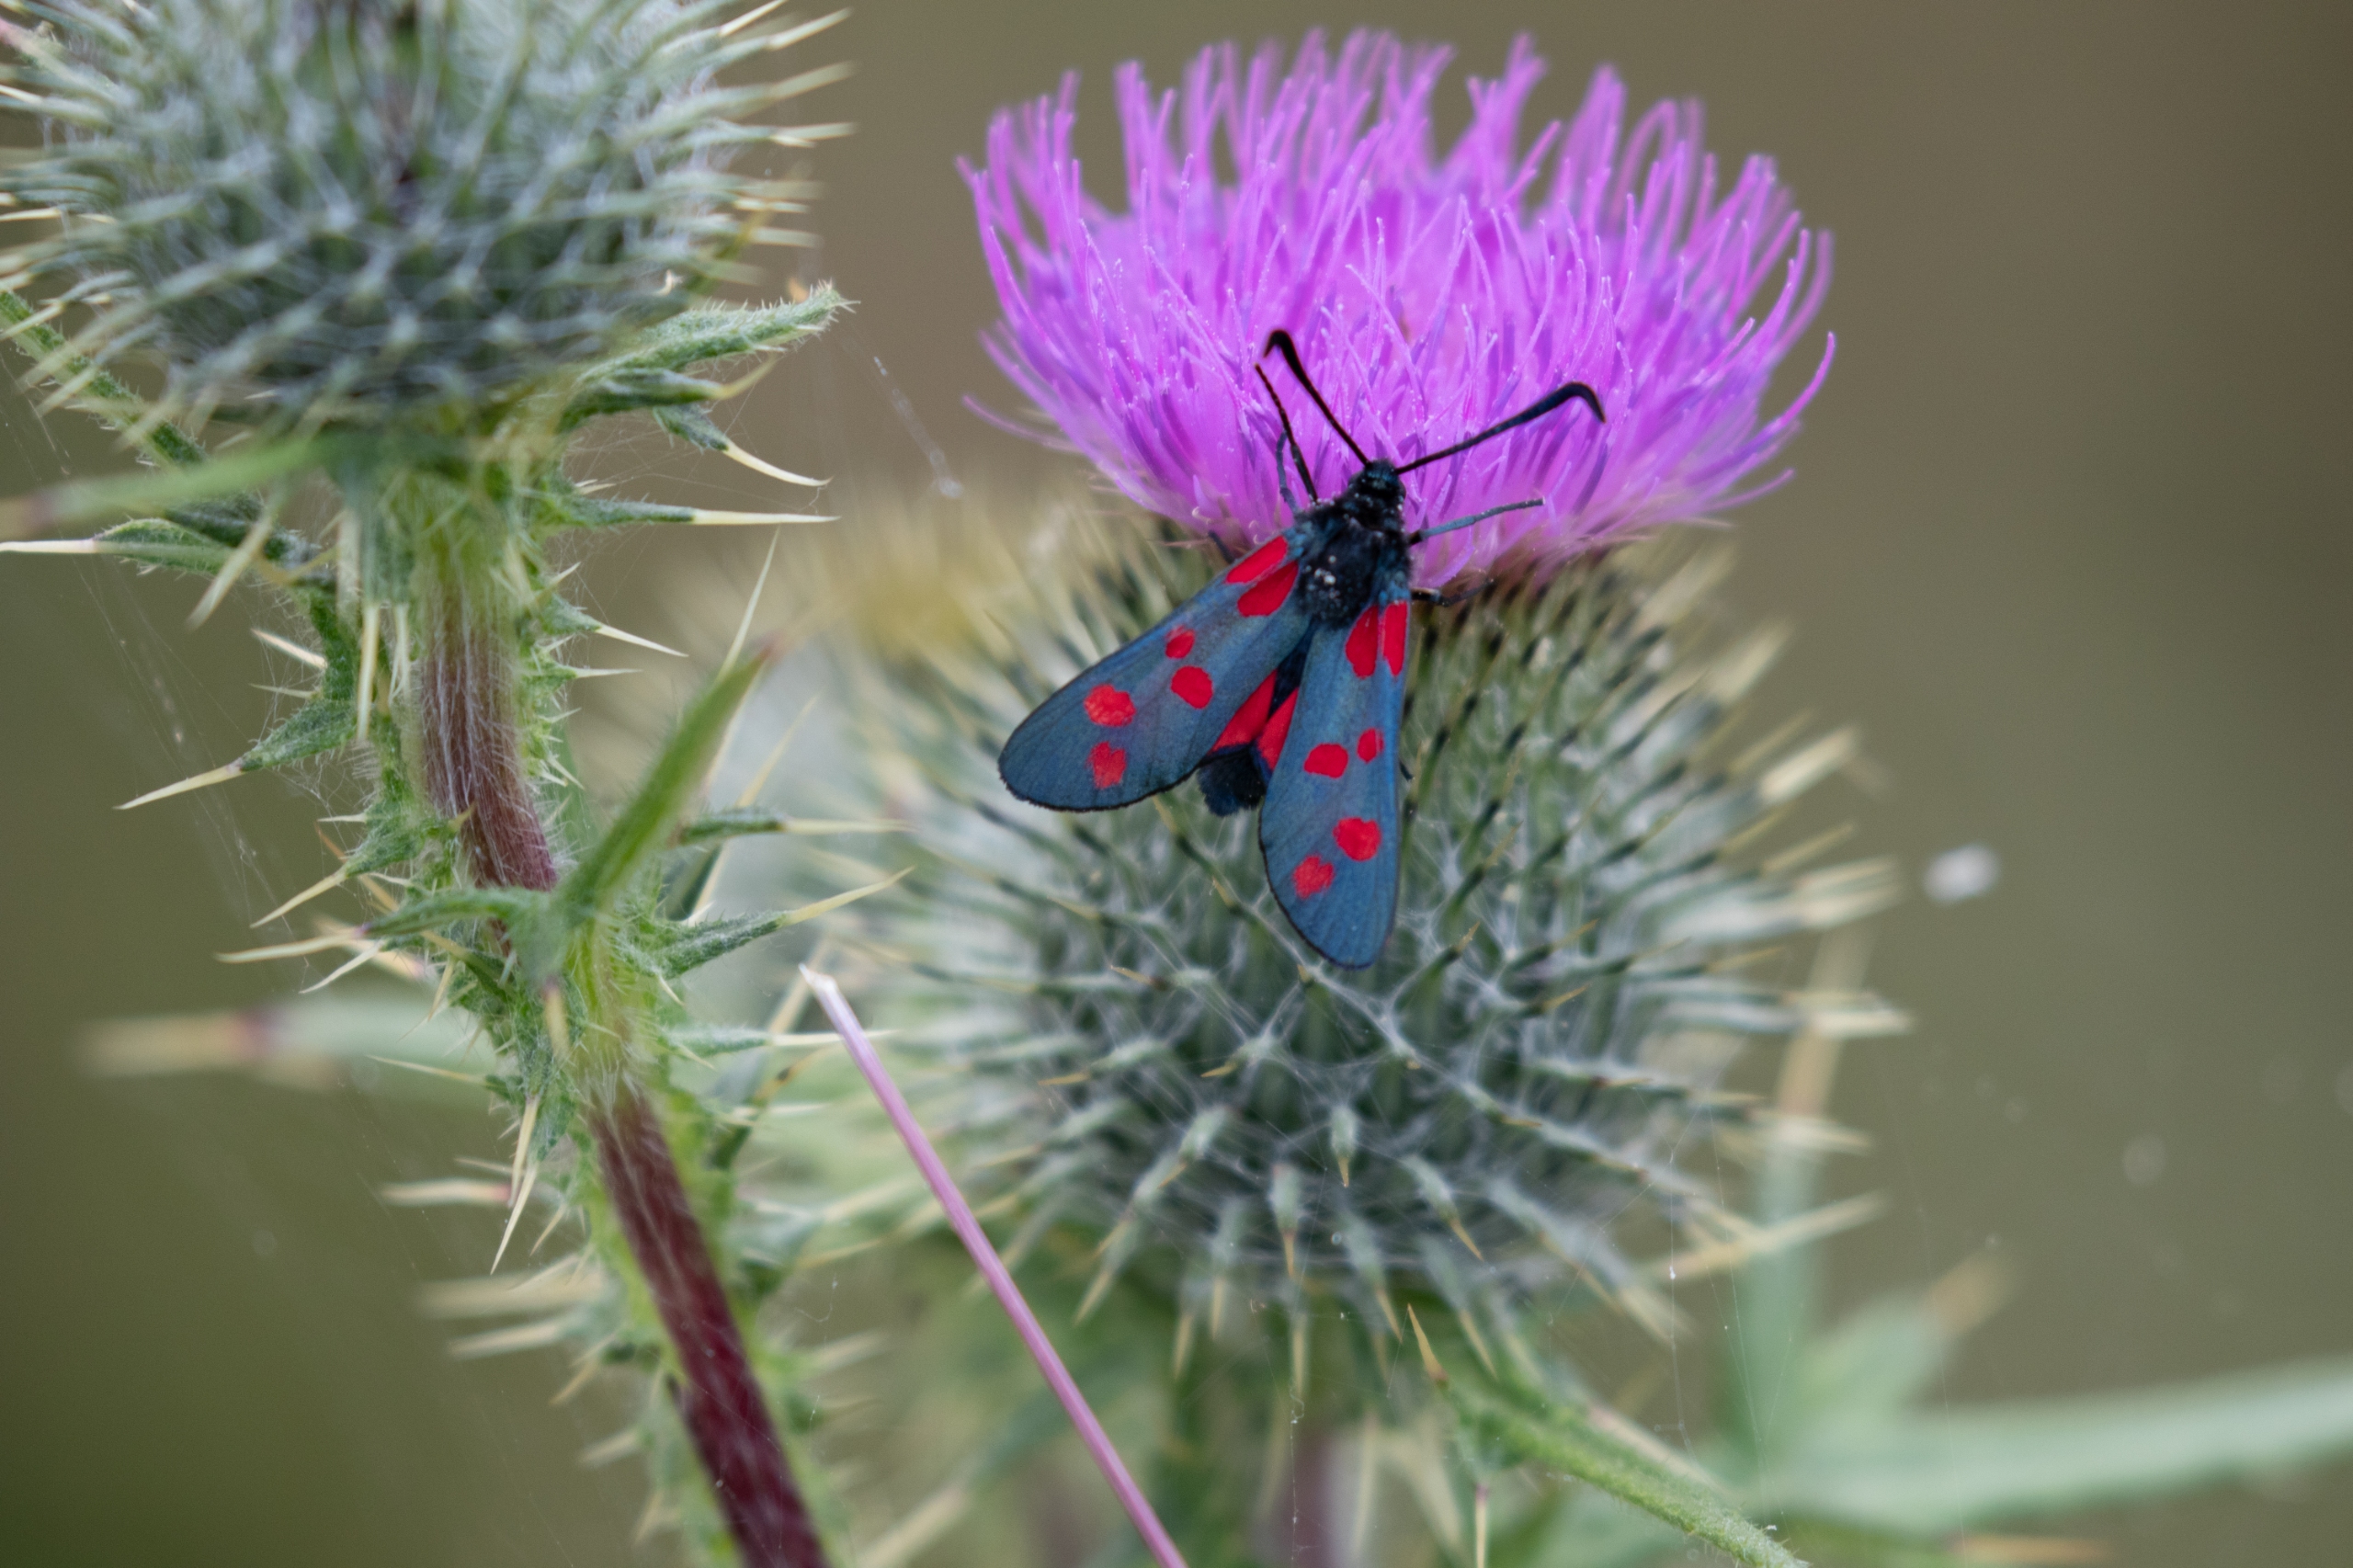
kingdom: Animalia
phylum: Arthropoda
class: Insecta
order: Lepidoptera
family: Zygaenidae
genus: Zygaena
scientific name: Zygaena filipendulae
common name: Seksplettet køllesværmer
